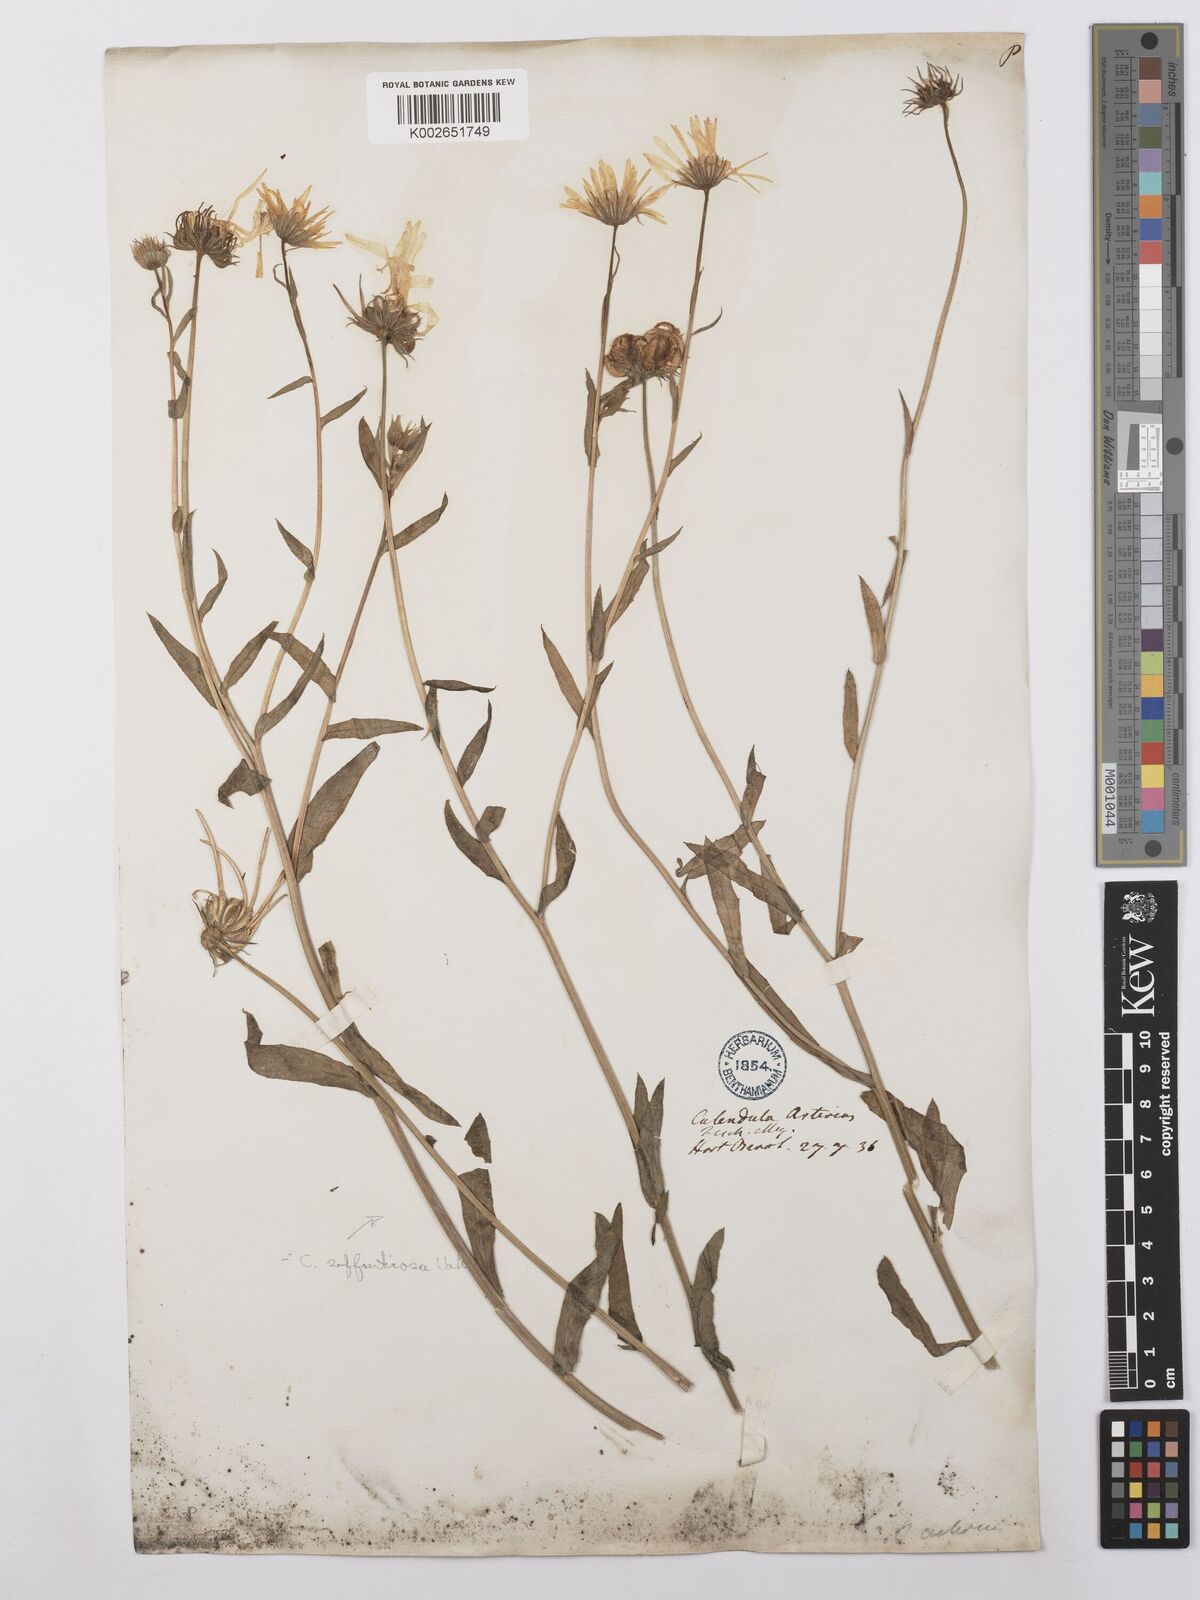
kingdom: Plantae
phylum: Tracheophyta
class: Magnoliopsida
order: Asterales
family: Asteraceae
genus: Calendula
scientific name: Calendula stellata
